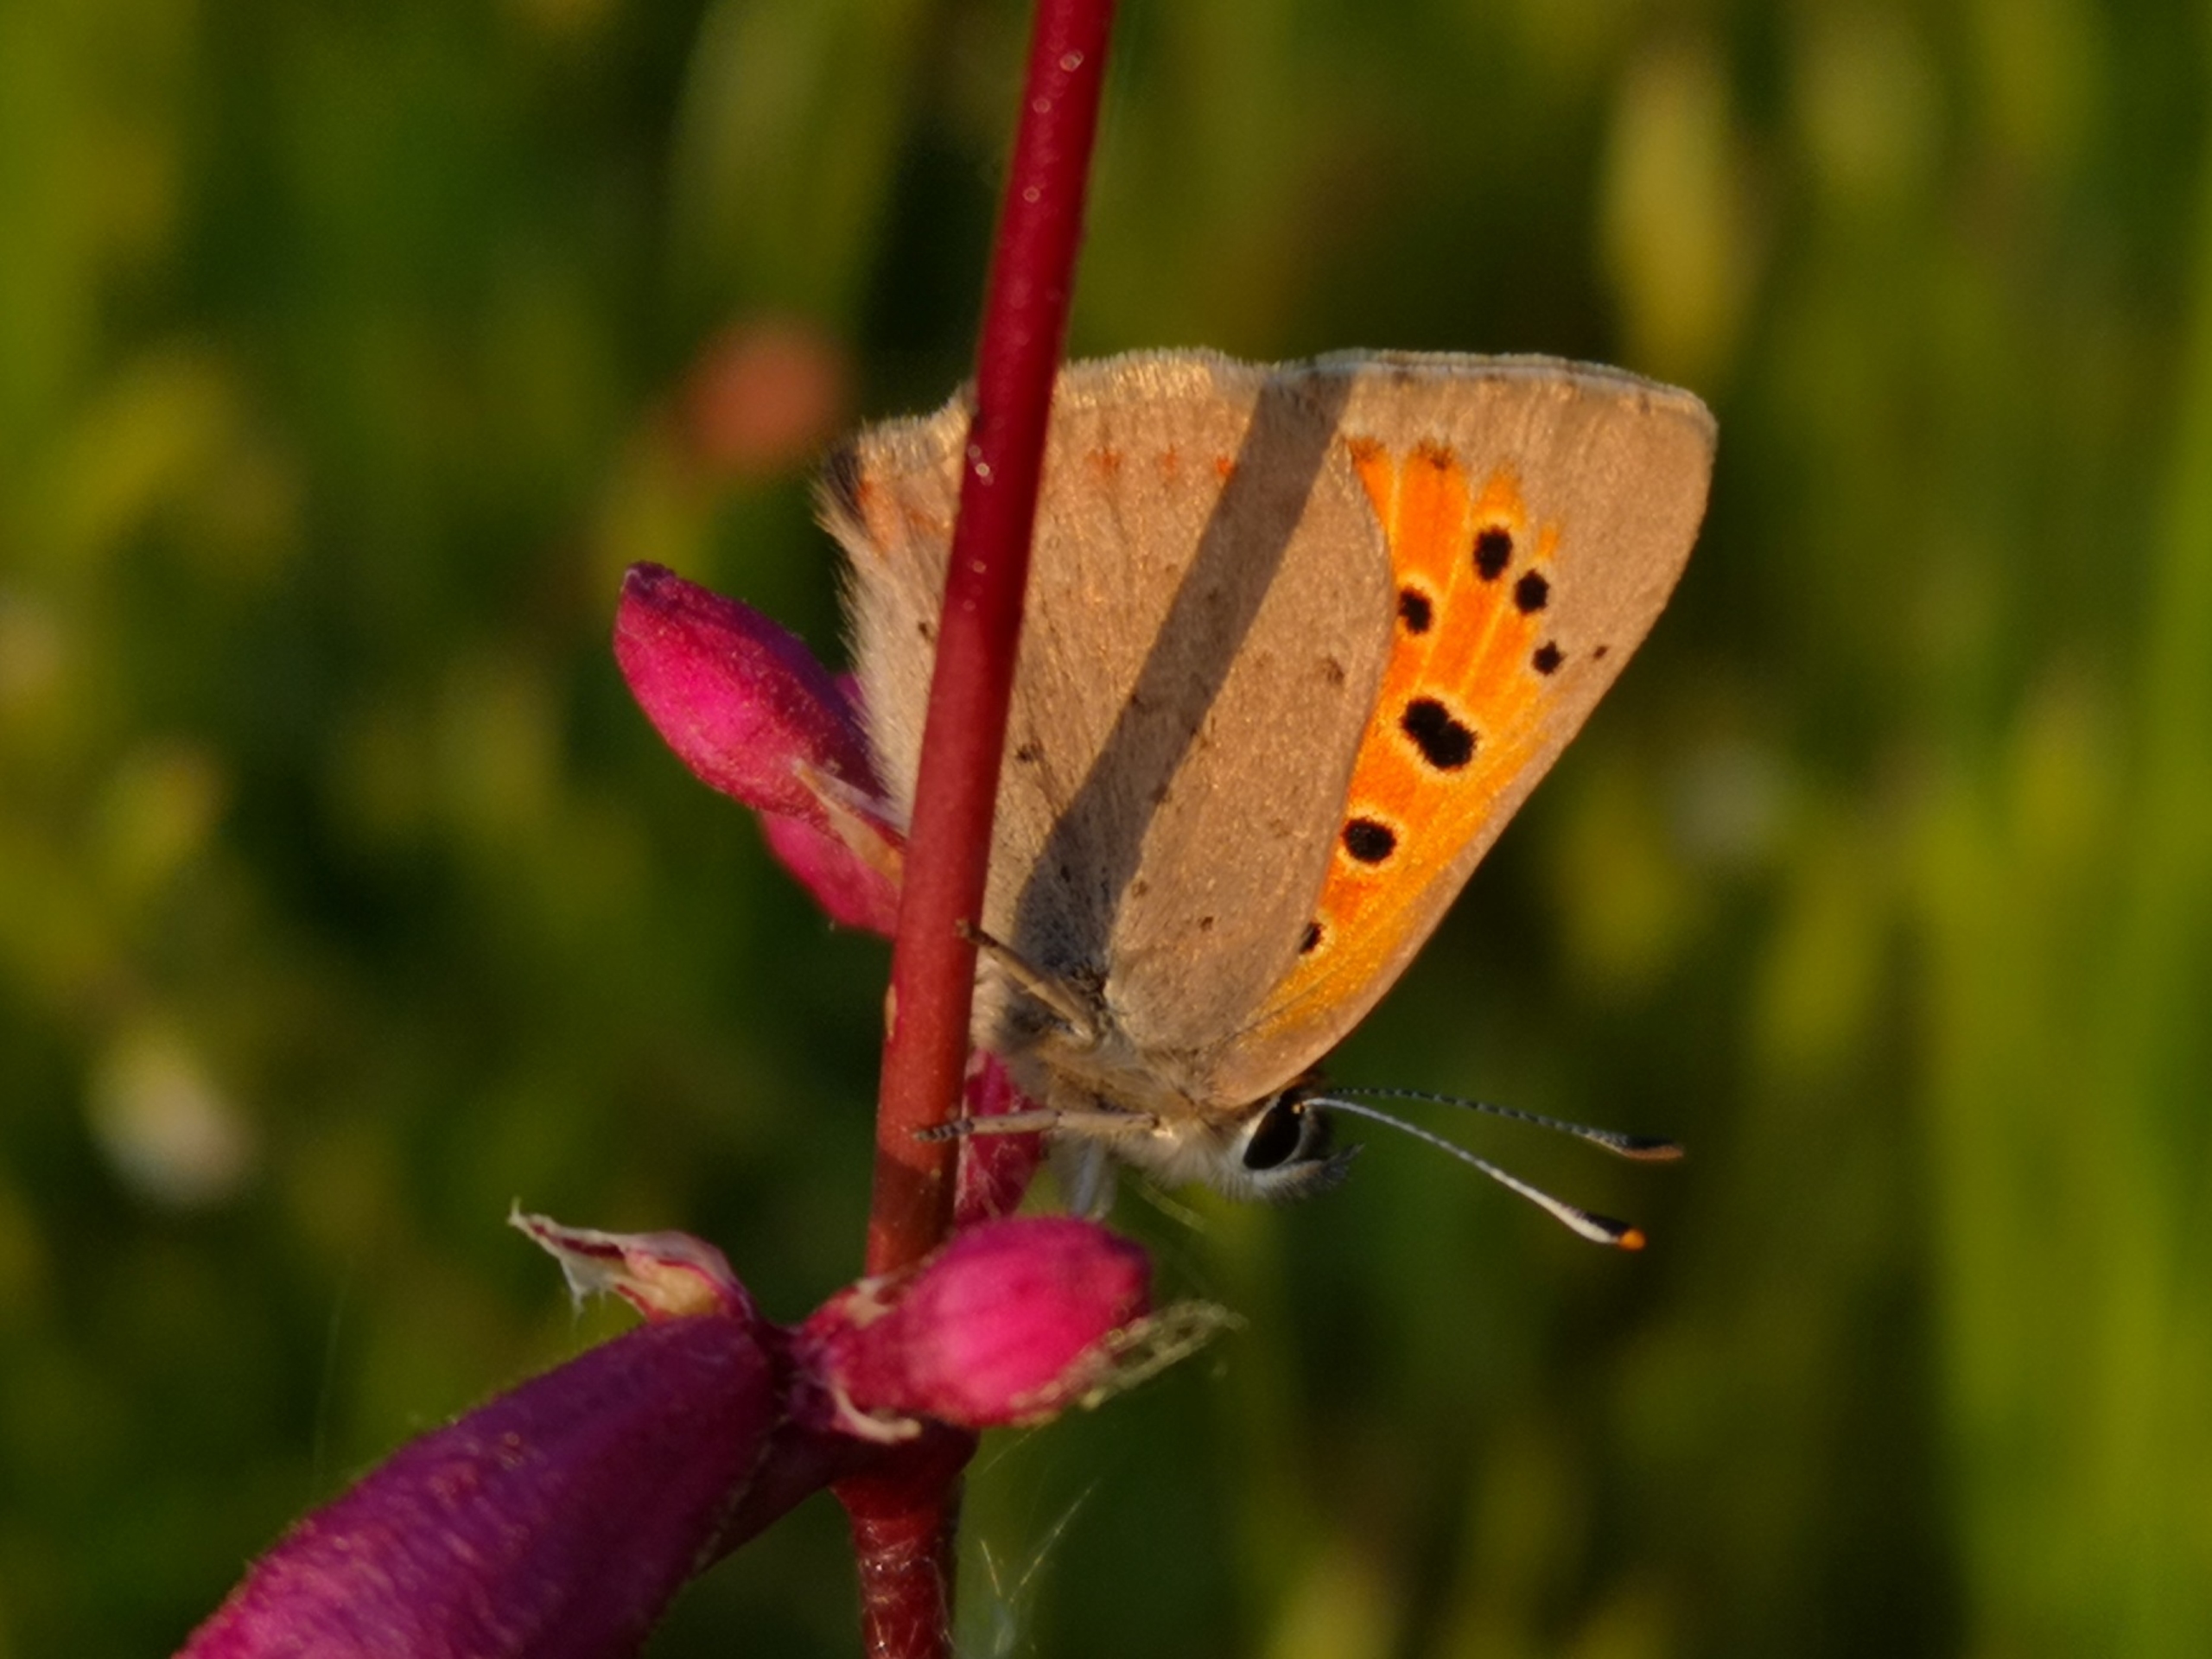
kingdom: Animalia
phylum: Arthropoda
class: Insecta
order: Lepidoptera
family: Lycaenidae
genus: Lycaena
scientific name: Lycaena phlaeas
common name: Lille ildfugl
